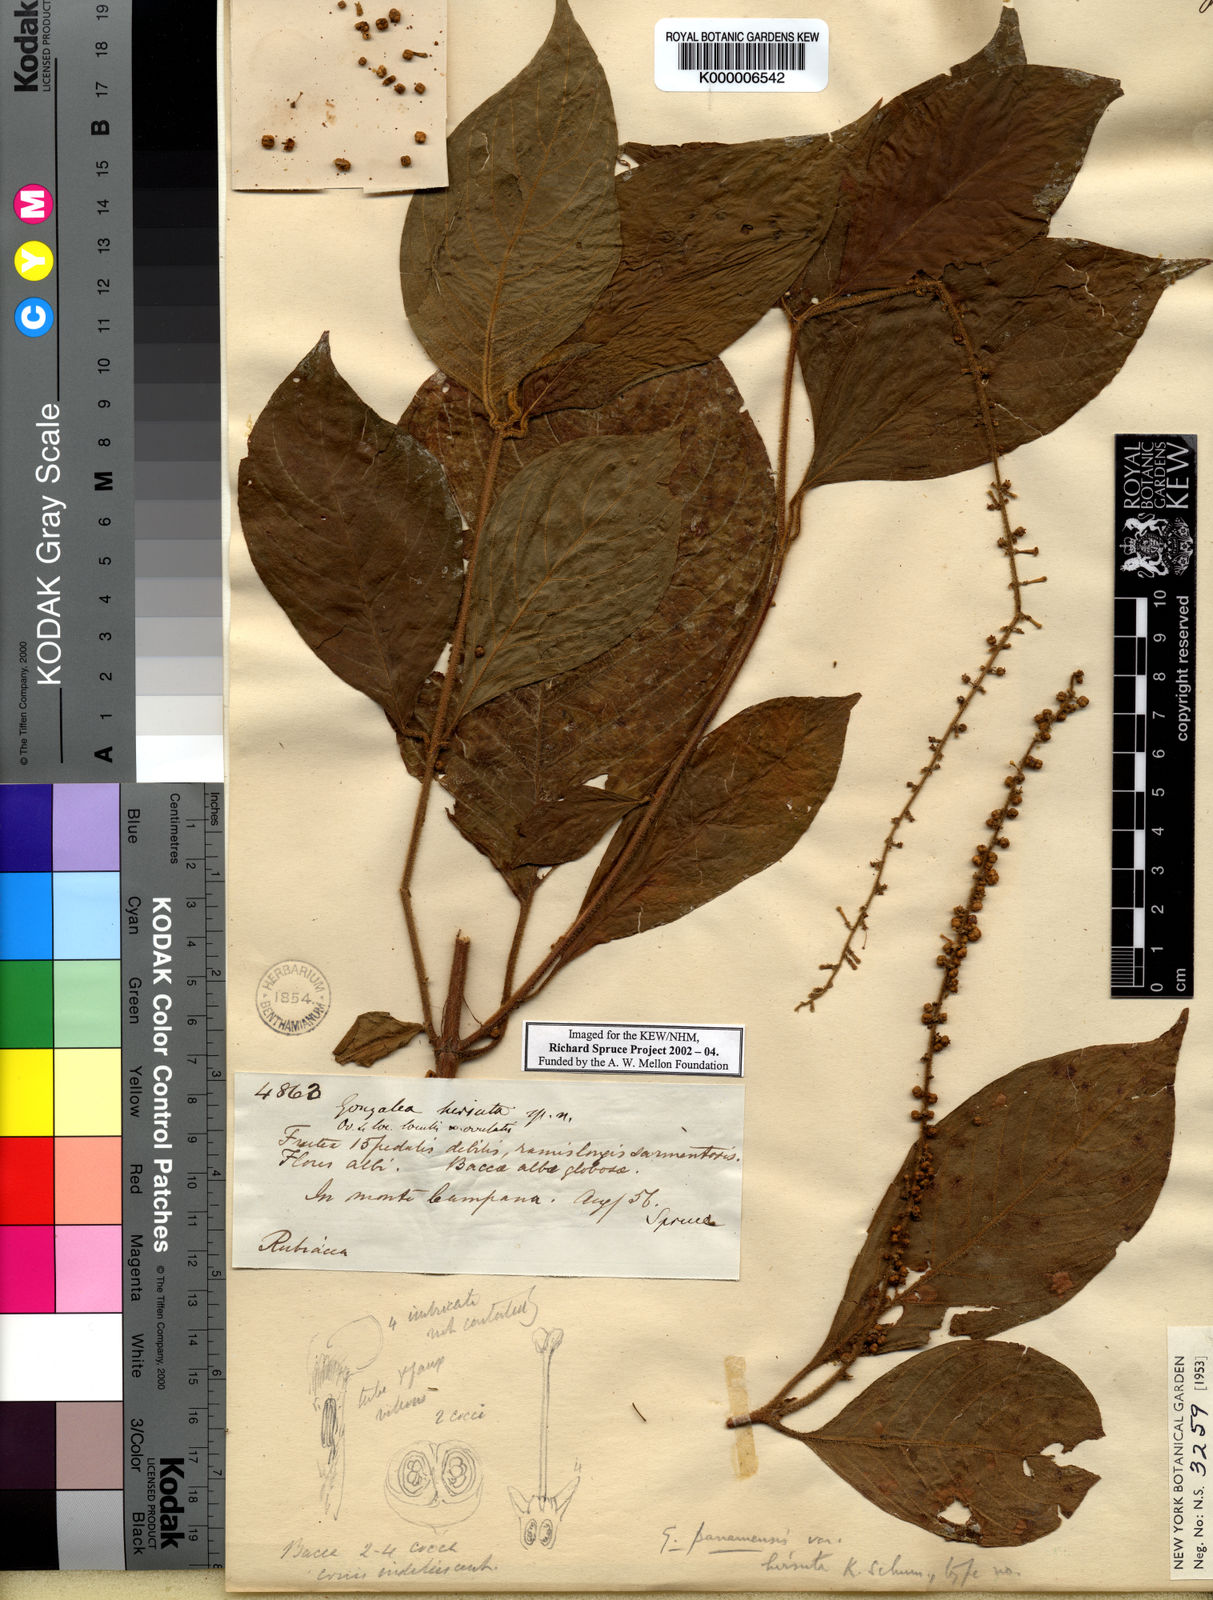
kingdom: Plantae
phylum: Tracheophyta
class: Magnoliopsida
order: Gentianales
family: Rubiaceae
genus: Gonzalagunia
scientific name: Gonzalagunia panamensis
